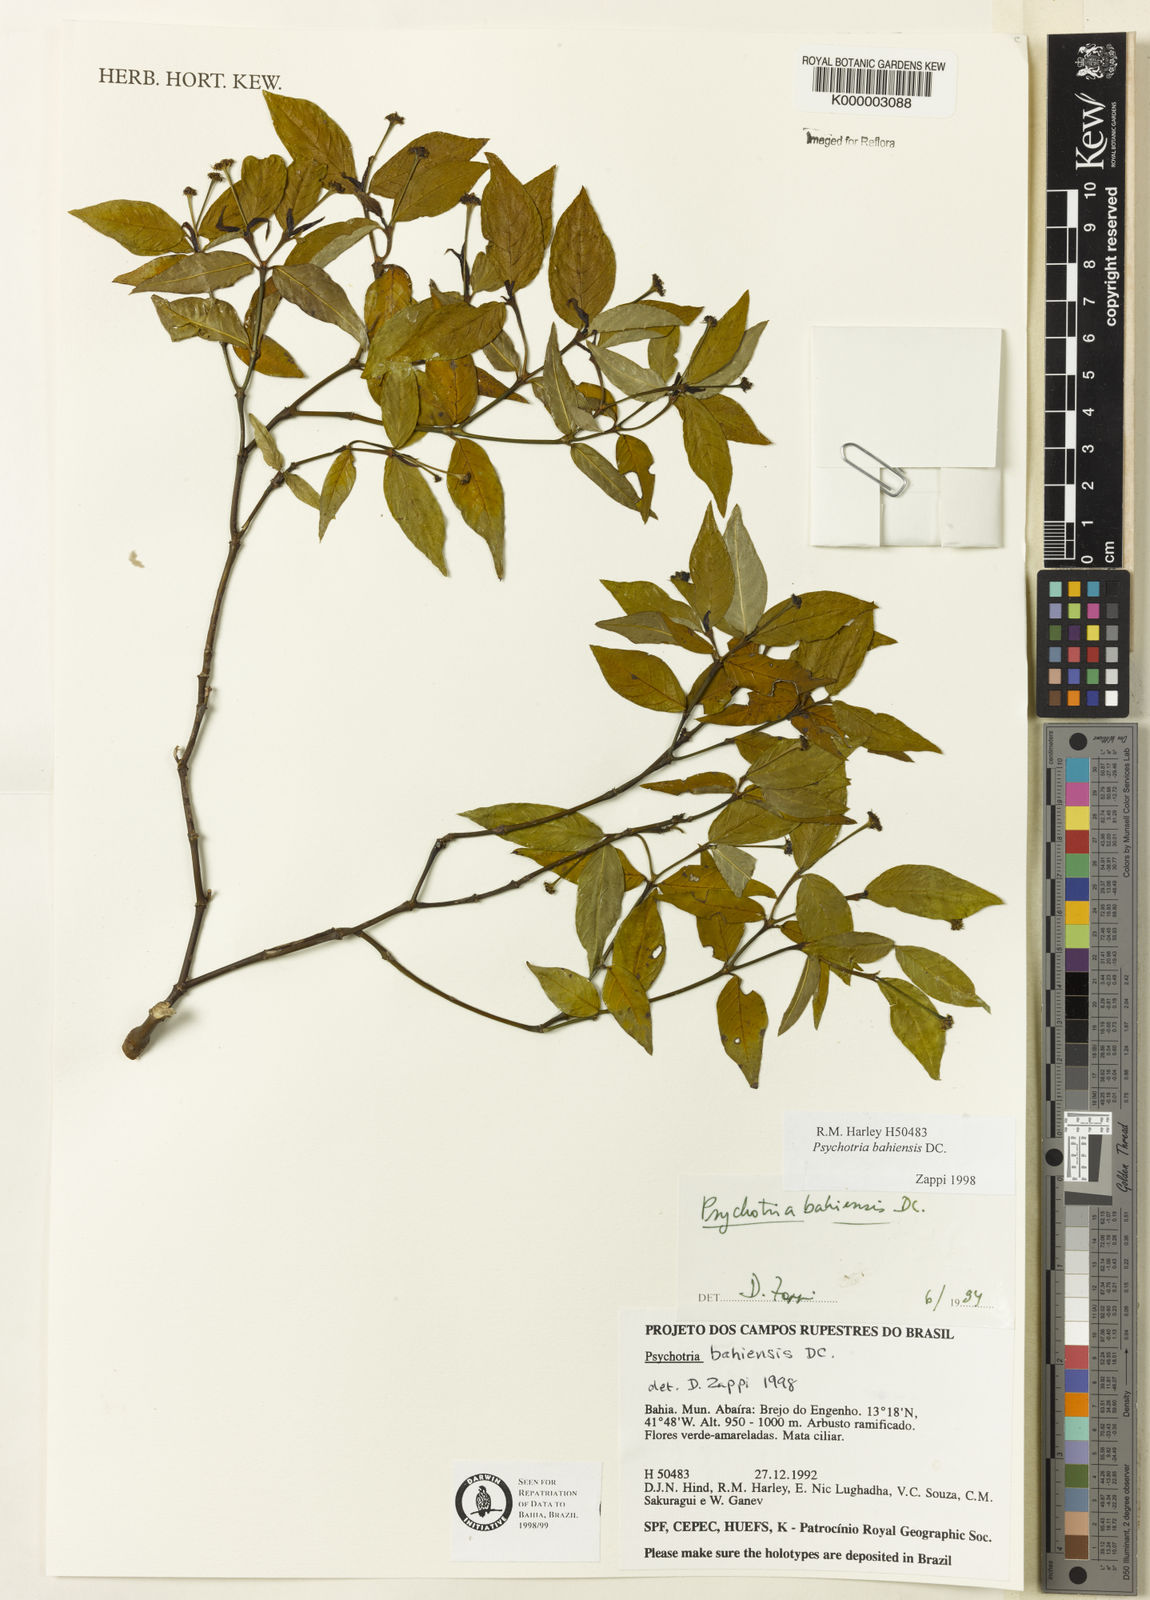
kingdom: Plantae
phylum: Tracheophyta
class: Magnoliopsida
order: Gentianales
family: Rubiaceae
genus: Psychotria
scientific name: Psychotria bahiensis
